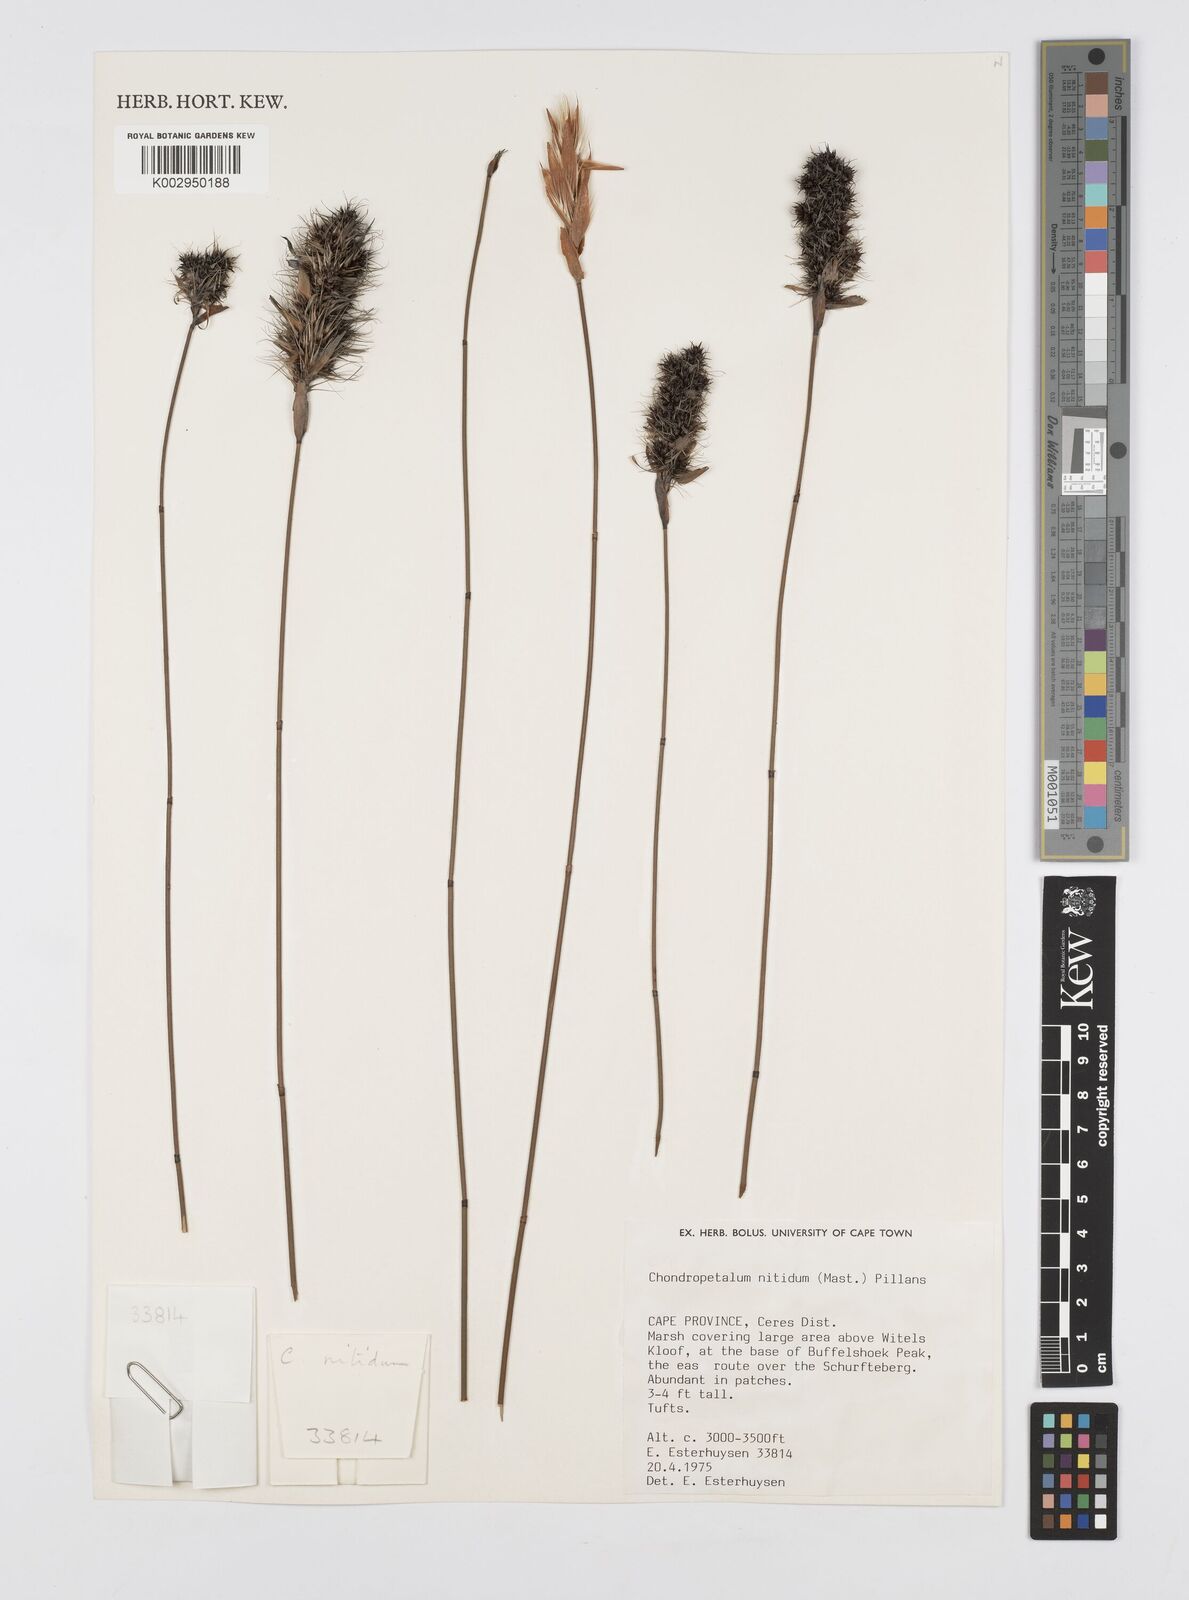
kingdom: Plantae
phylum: Tracheophyta
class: Liliopsida
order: Poales
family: Restionaceae
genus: Askidiosperma
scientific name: Askidiosperma nitidum
